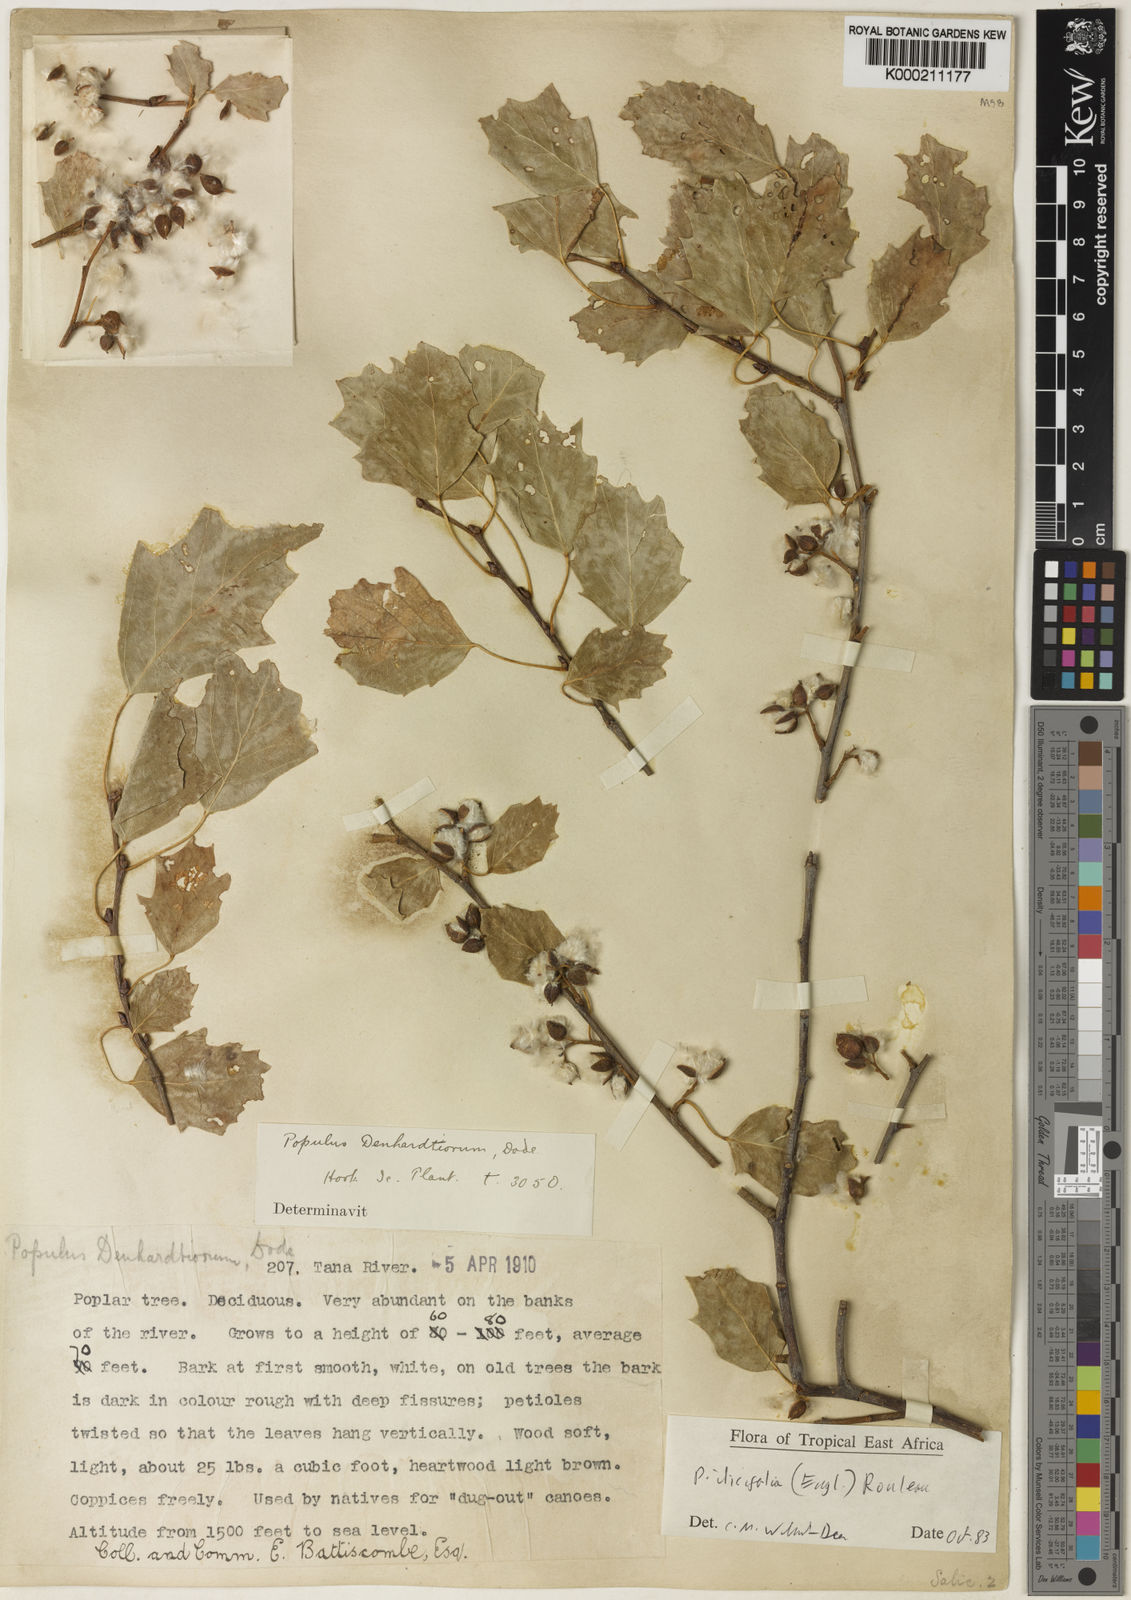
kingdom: Plantae
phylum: Tracheophyta
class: Magnoliopsida
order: Malpighiales
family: Salicaceae
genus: Populus
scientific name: Populus ilicifolia
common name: Tana river poplar
